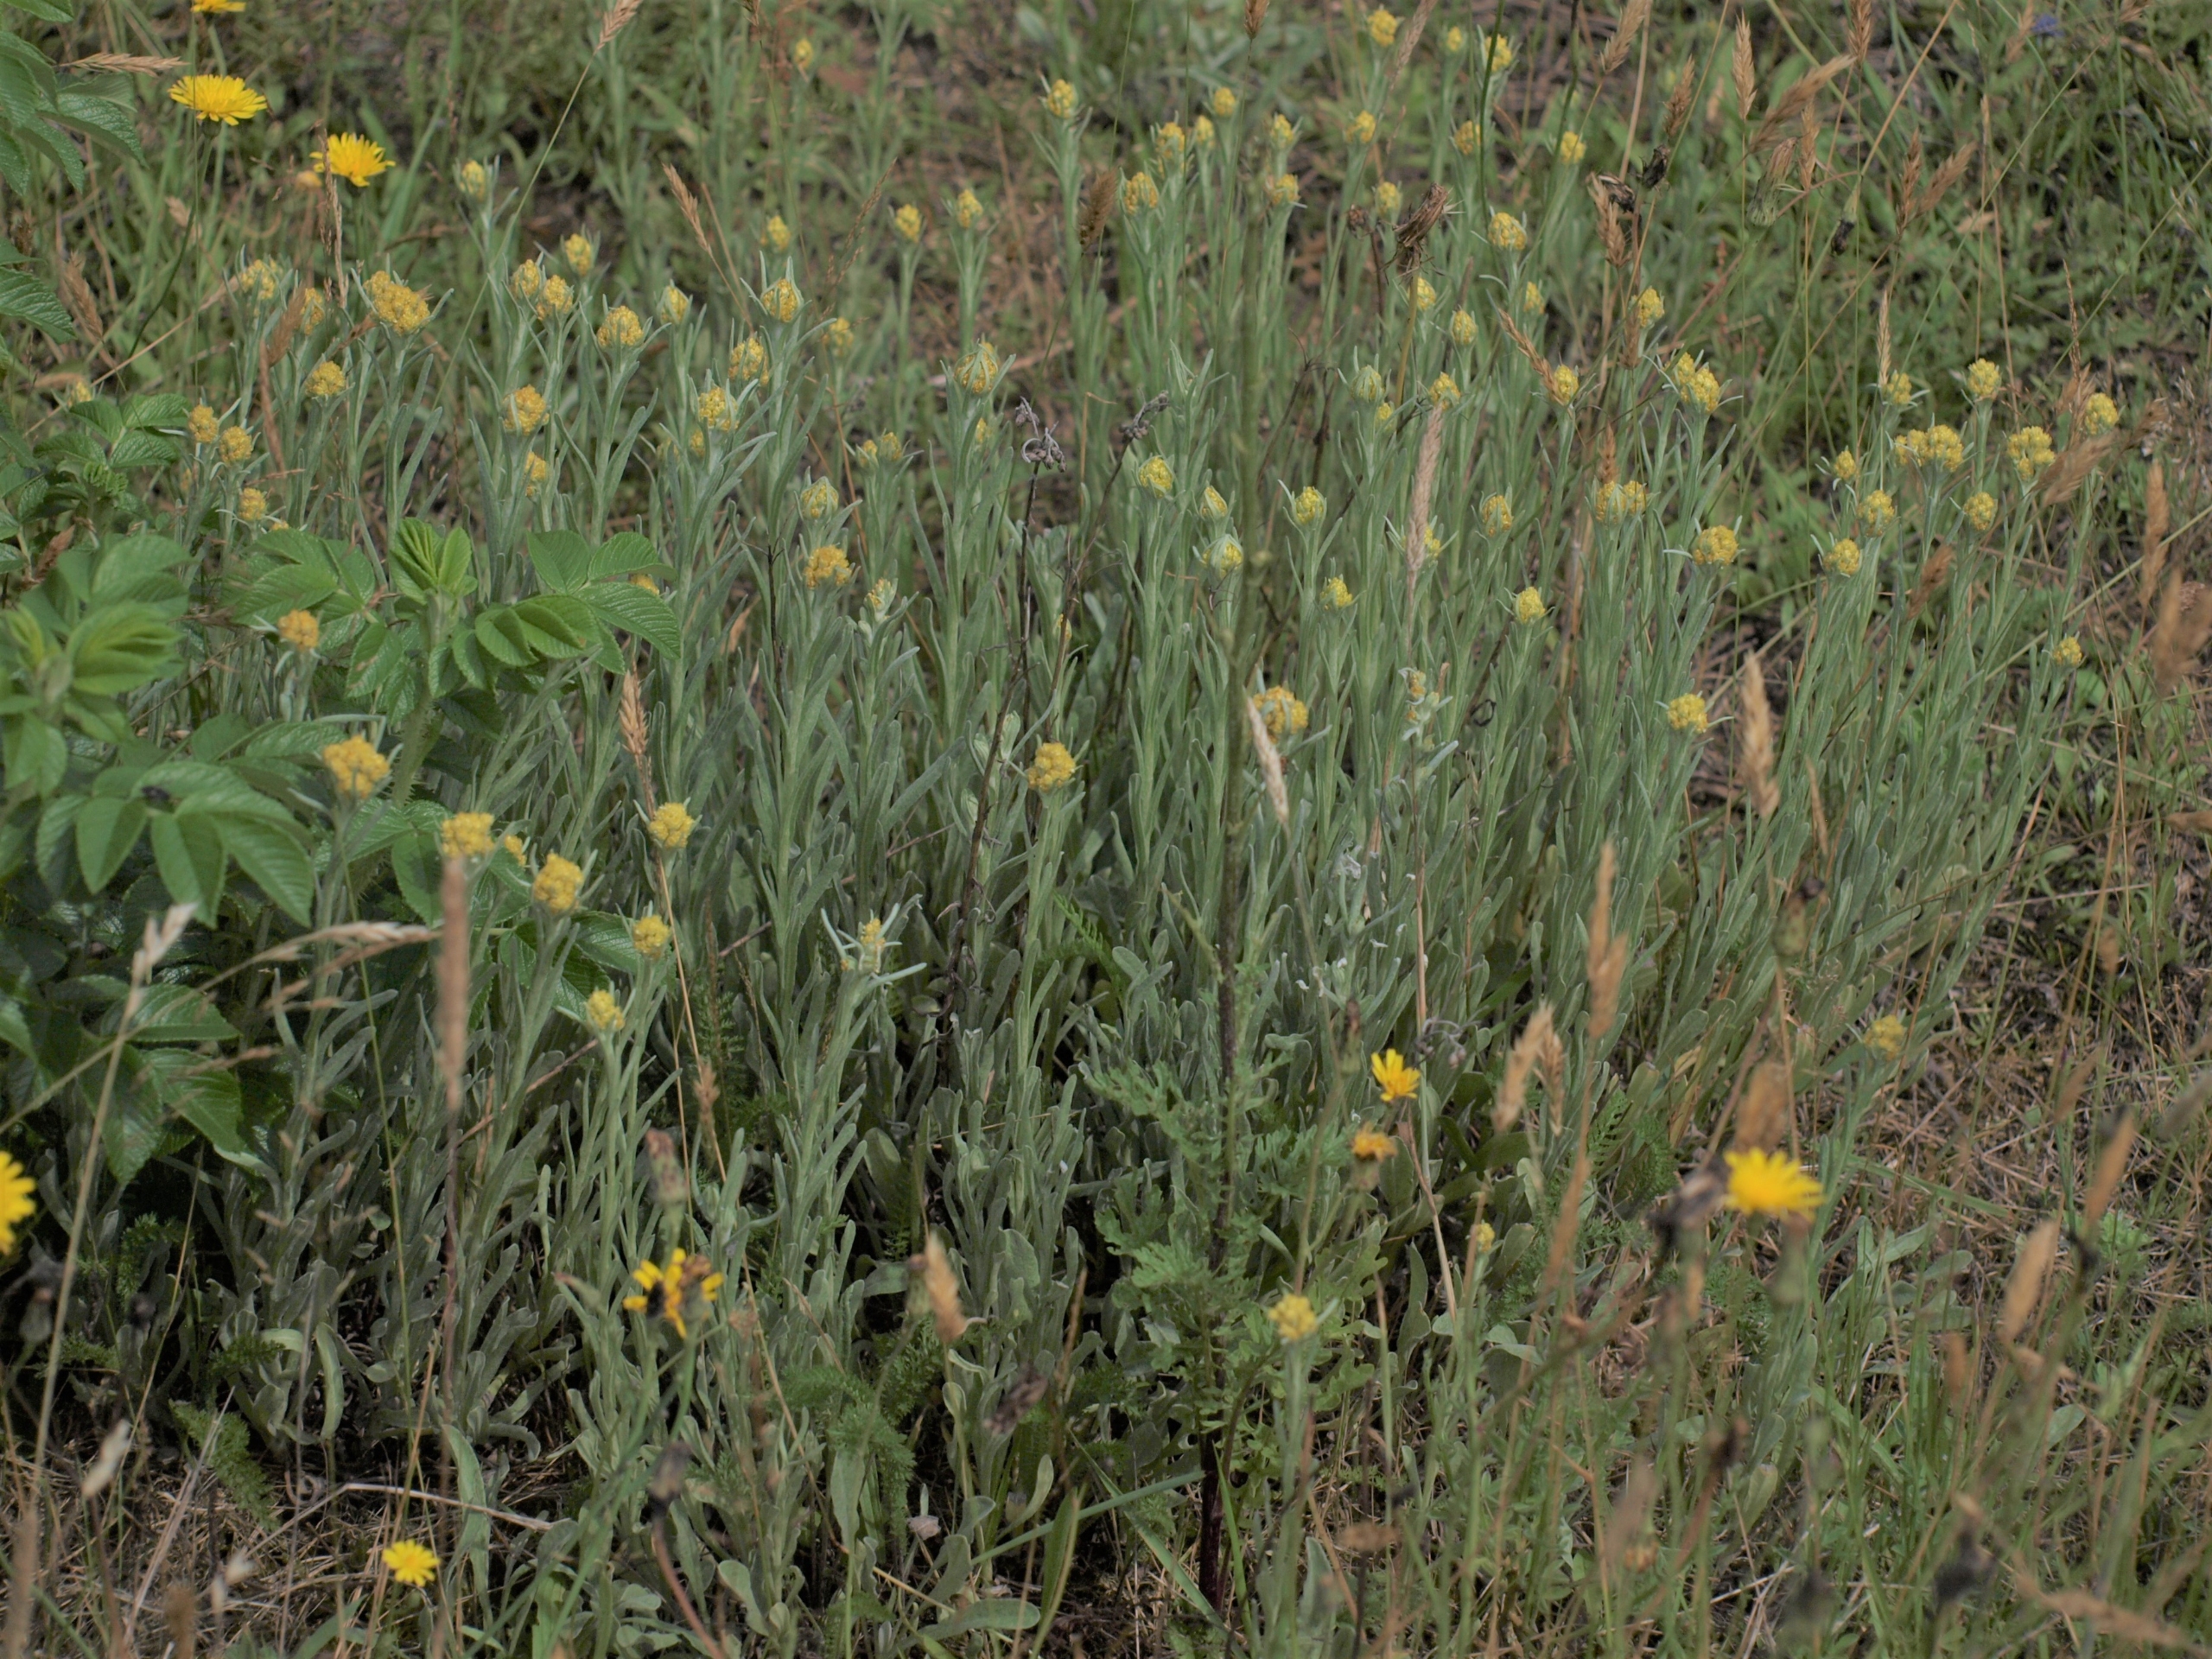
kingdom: Plantae
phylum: Tracheophyta
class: Magnoliopsida
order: Asterales
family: Asteraceae
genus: Helichrysum
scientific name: Helichrysum arenarium
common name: Gul evighedsblomst
